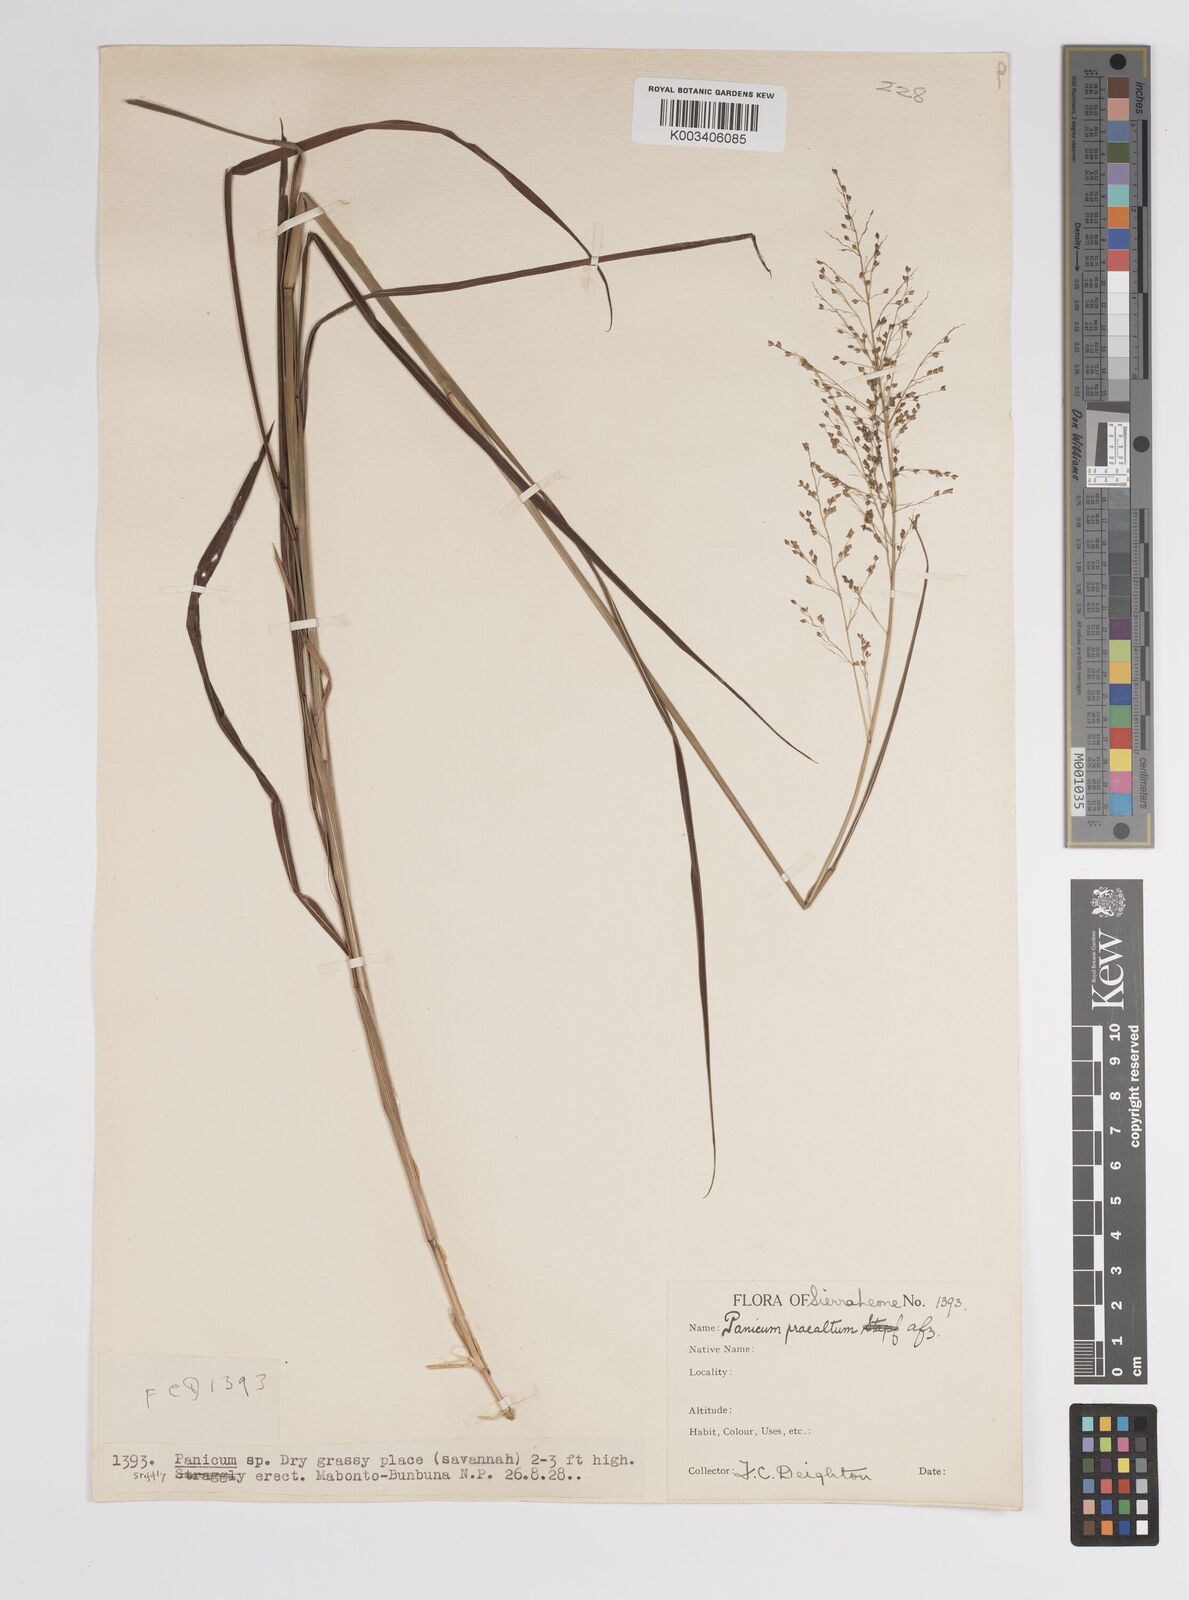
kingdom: Plantae
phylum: Tracheophyta
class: Liliopsida
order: Poales
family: Poaceae
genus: Trichanthecium
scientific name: Trichanthecium praealtum
